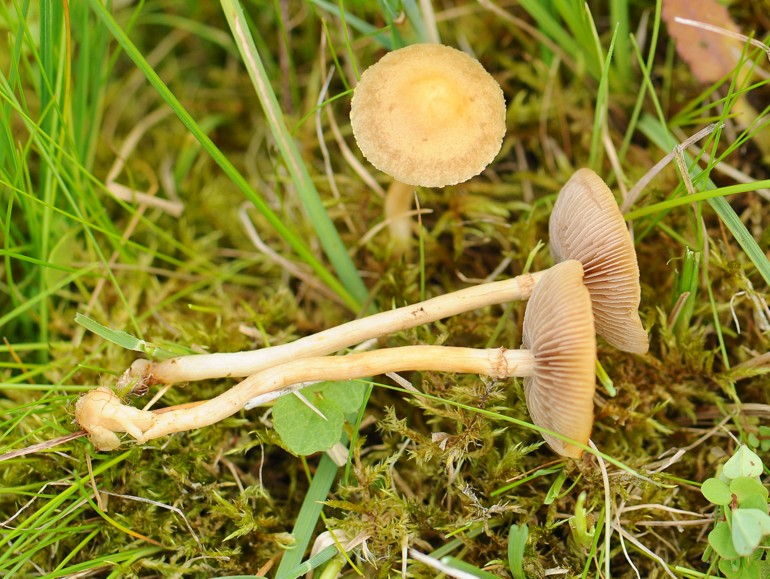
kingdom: Fungi
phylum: Basidiomycota
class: Agaricomycetes
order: Agaricales
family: Strophariaceae
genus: Agrocybe
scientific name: Agrocybe elatella
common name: mose-agerhat
